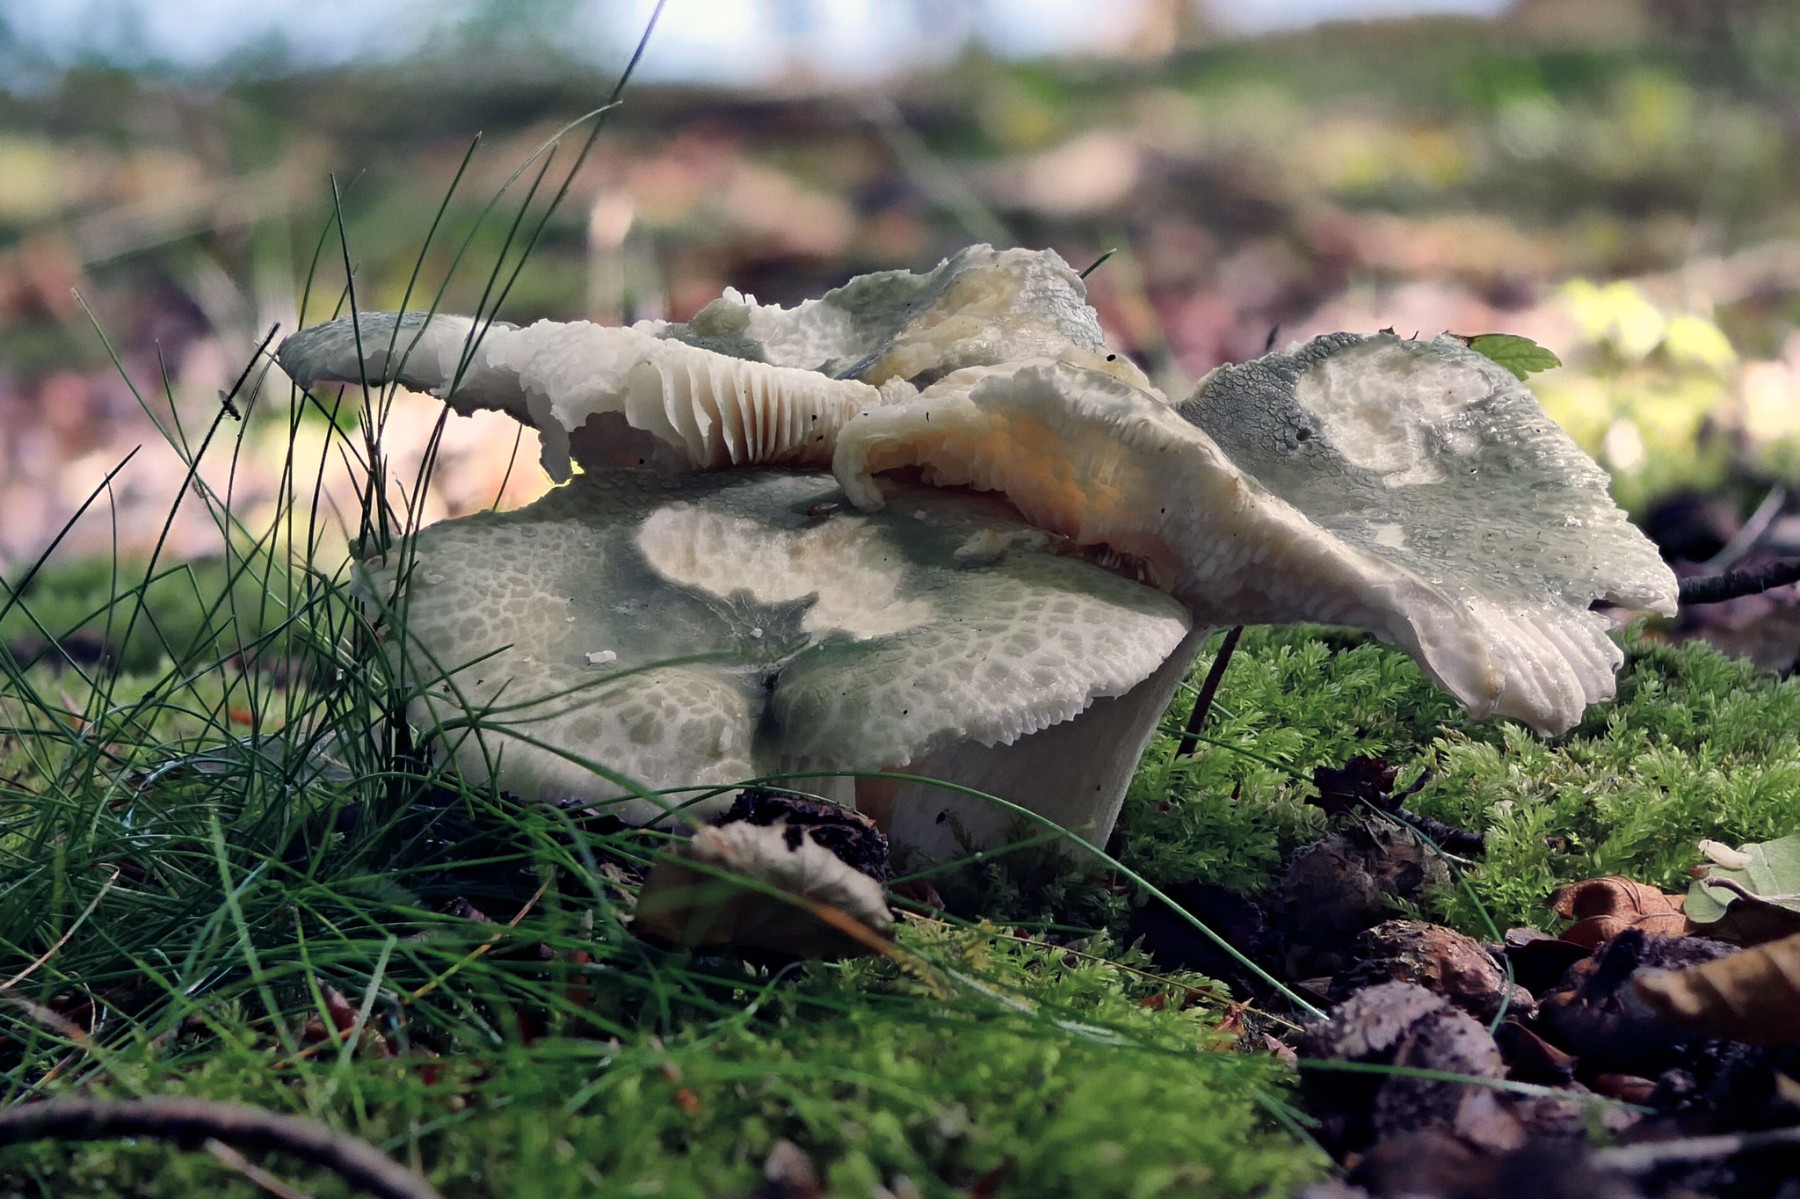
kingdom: Fungi
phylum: Basidiomycota
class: Agaricomycetes
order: Russulales
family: Russulaceae
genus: Russula
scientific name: Russula virescens
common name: spanskgrøn skørhat
